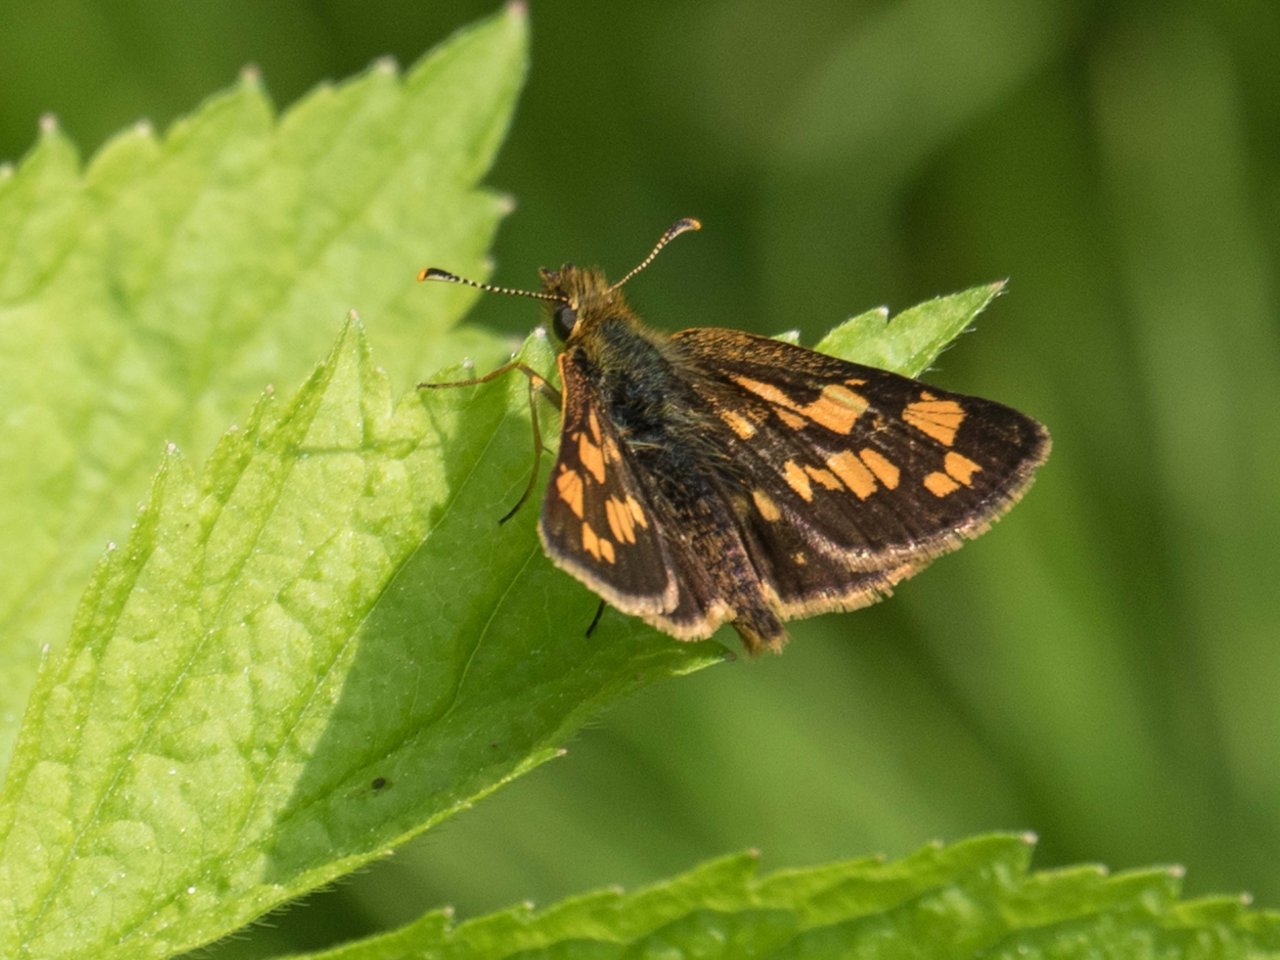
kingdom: Animalia
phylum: Arthropoda
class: Insecta
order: Lepidoptera
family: Hesperiidae
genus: Carterocephalus
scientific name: Carterocephalus palaemon
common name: Chequered Skipper
